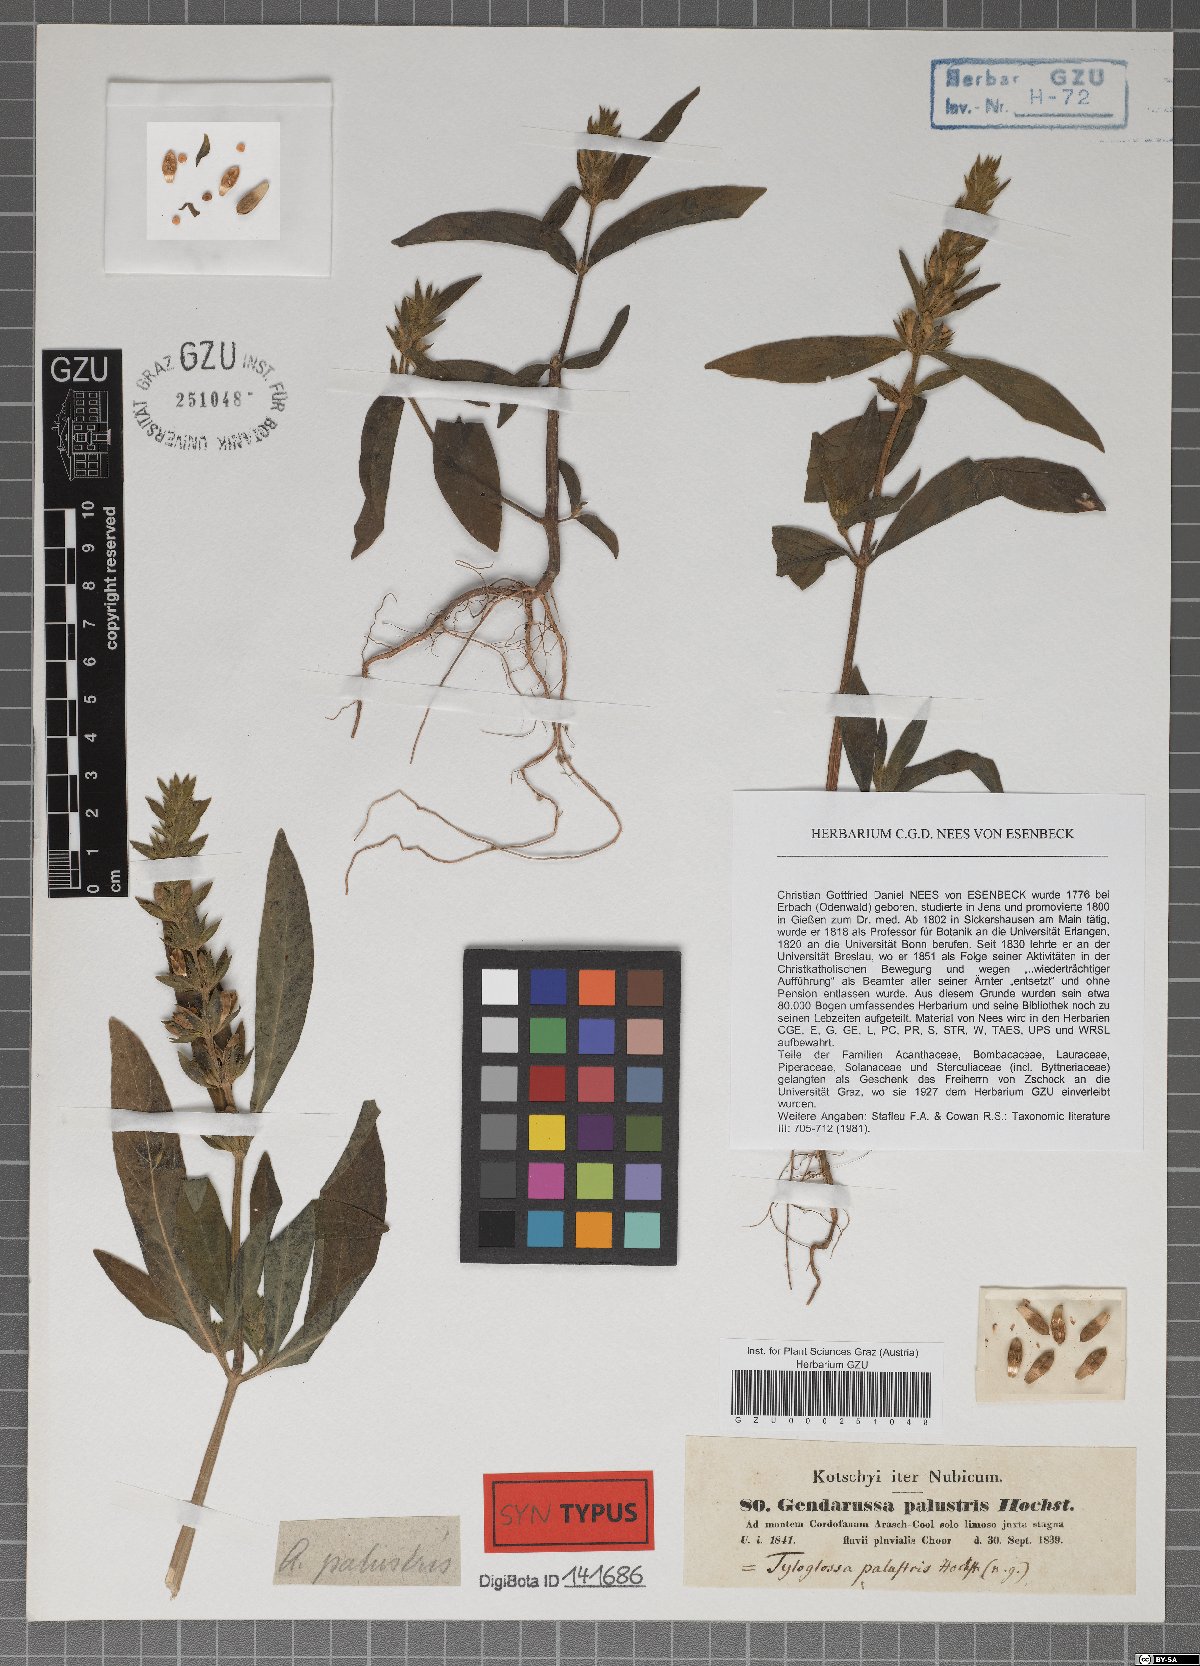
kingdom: Plantae
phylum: Tracheophyta
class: Magnoliopsida
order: Lamiales
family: Acanthaceae
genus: Justicia
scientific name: Justicia flava
